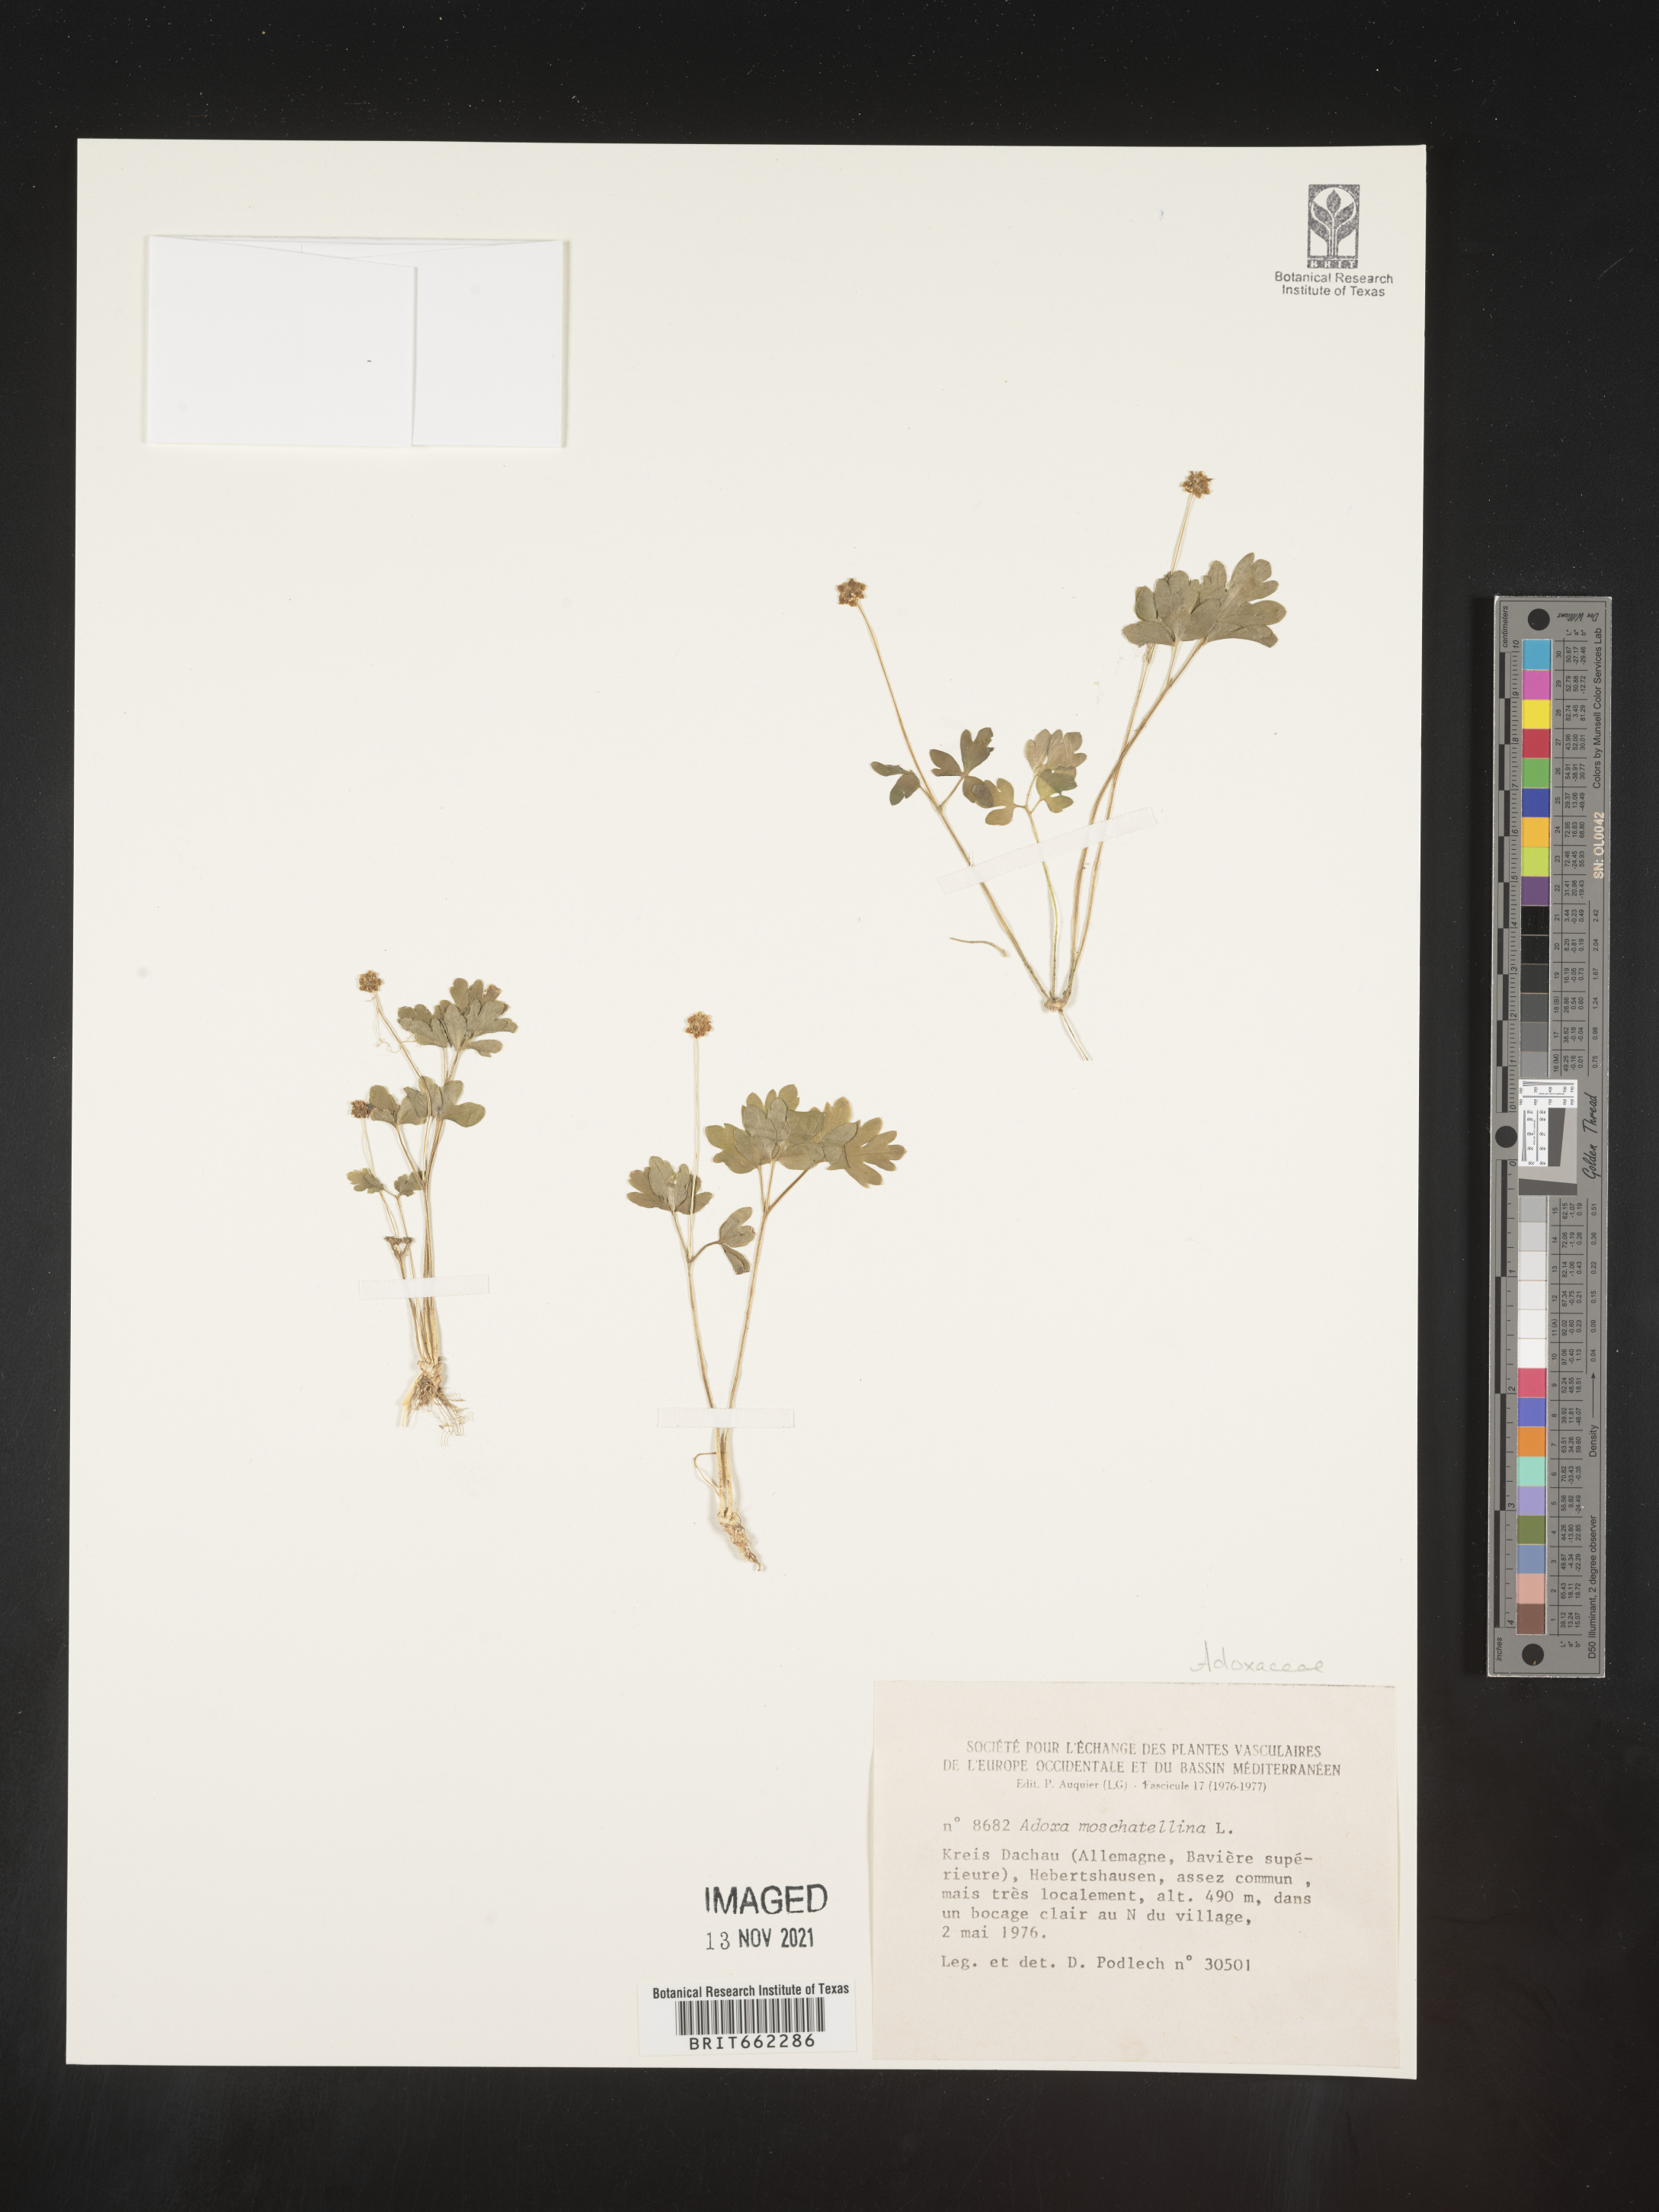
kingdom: Plantae
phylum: Tracheophyta
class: Magnoliopsida
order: Dipsacales
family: Viburnaceae
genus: Adoxa
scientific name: Adoxa
